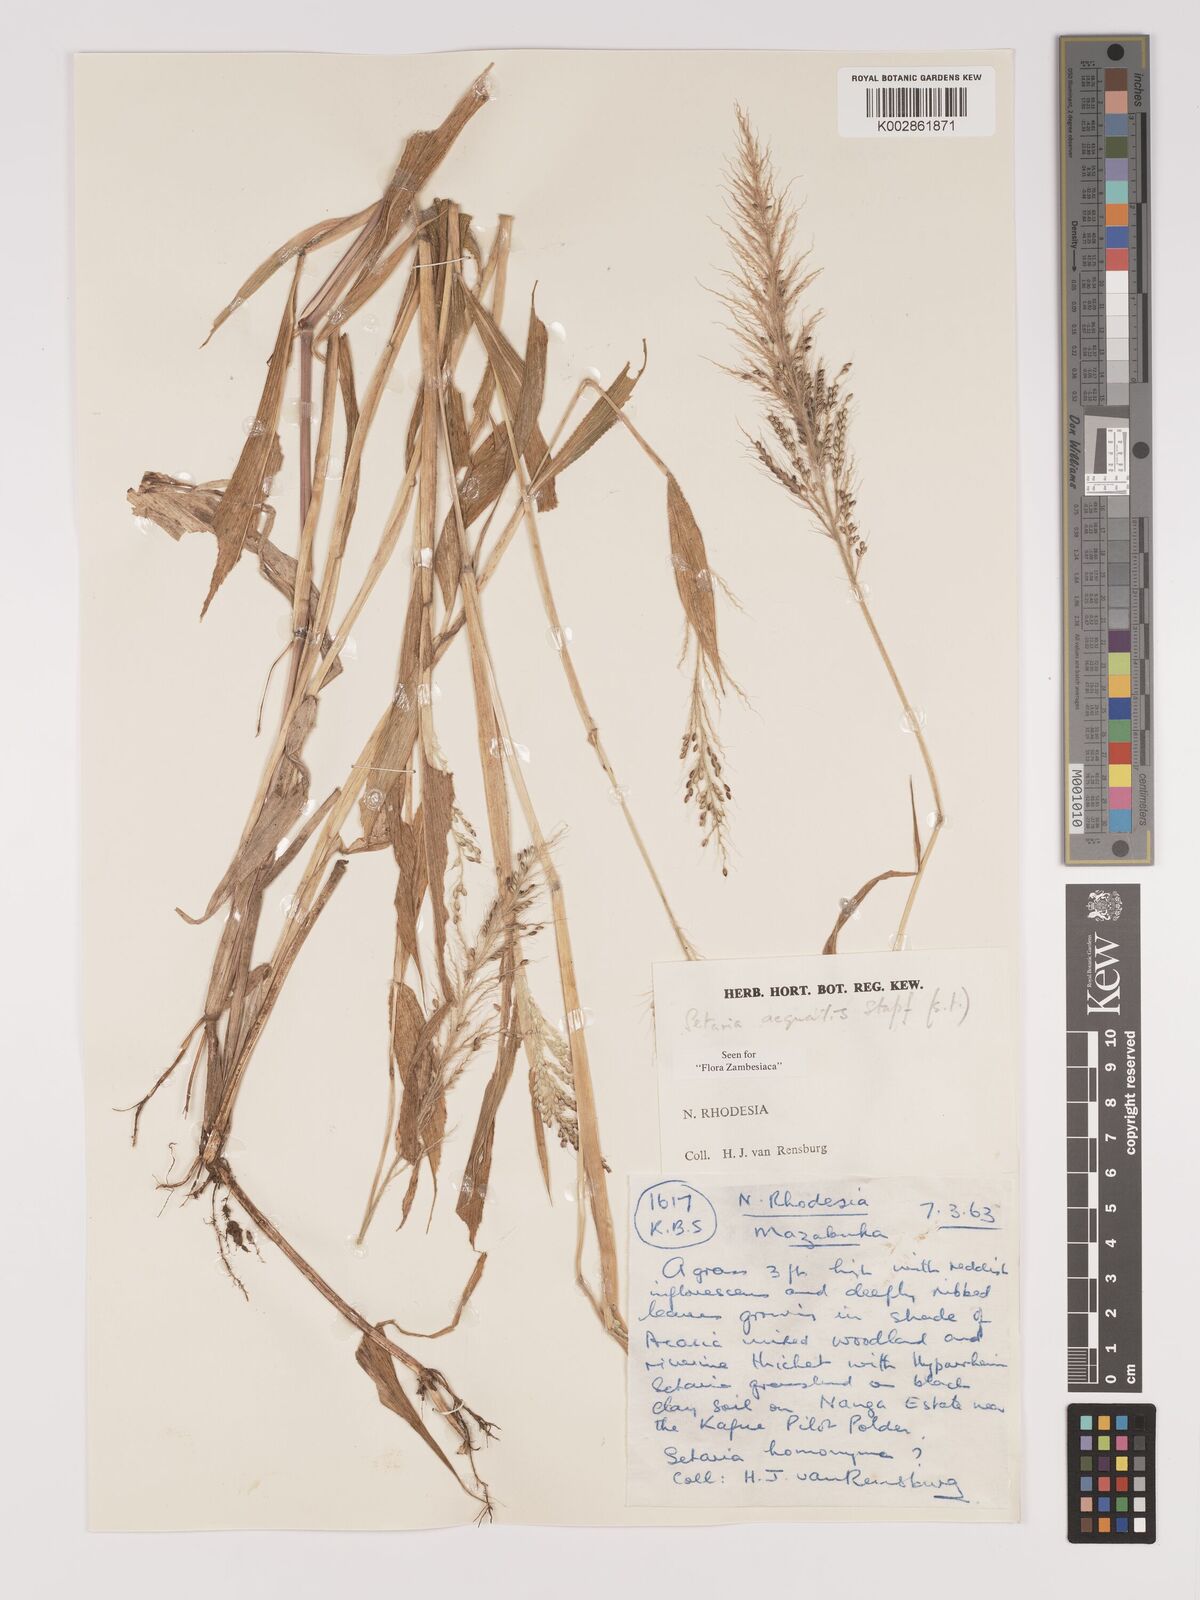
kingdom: Plantae
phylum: Tracheophyta
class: Liliopsida
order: Poales
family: Poaceae
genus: Setaria
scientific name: Setaria homonyma
